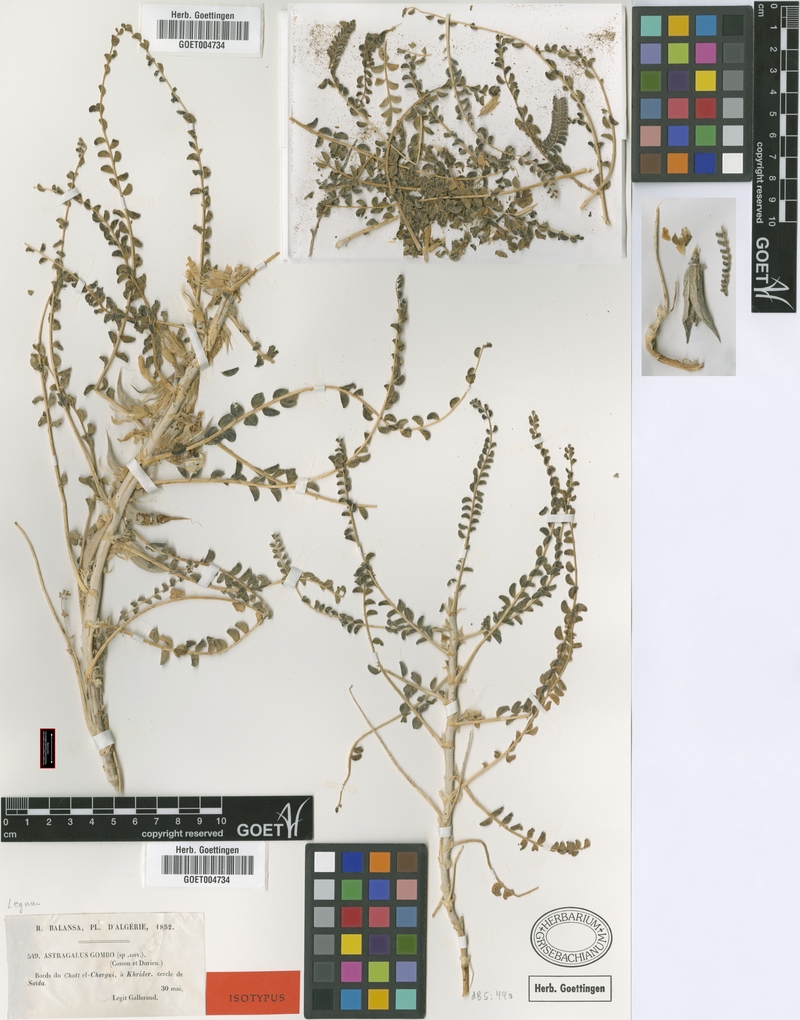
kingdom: Plantae
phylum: Tracheophyta
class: Magnoliopsida
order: Fabales
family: Fabaceae
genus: Astragalus
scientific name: Astragalus gombo
